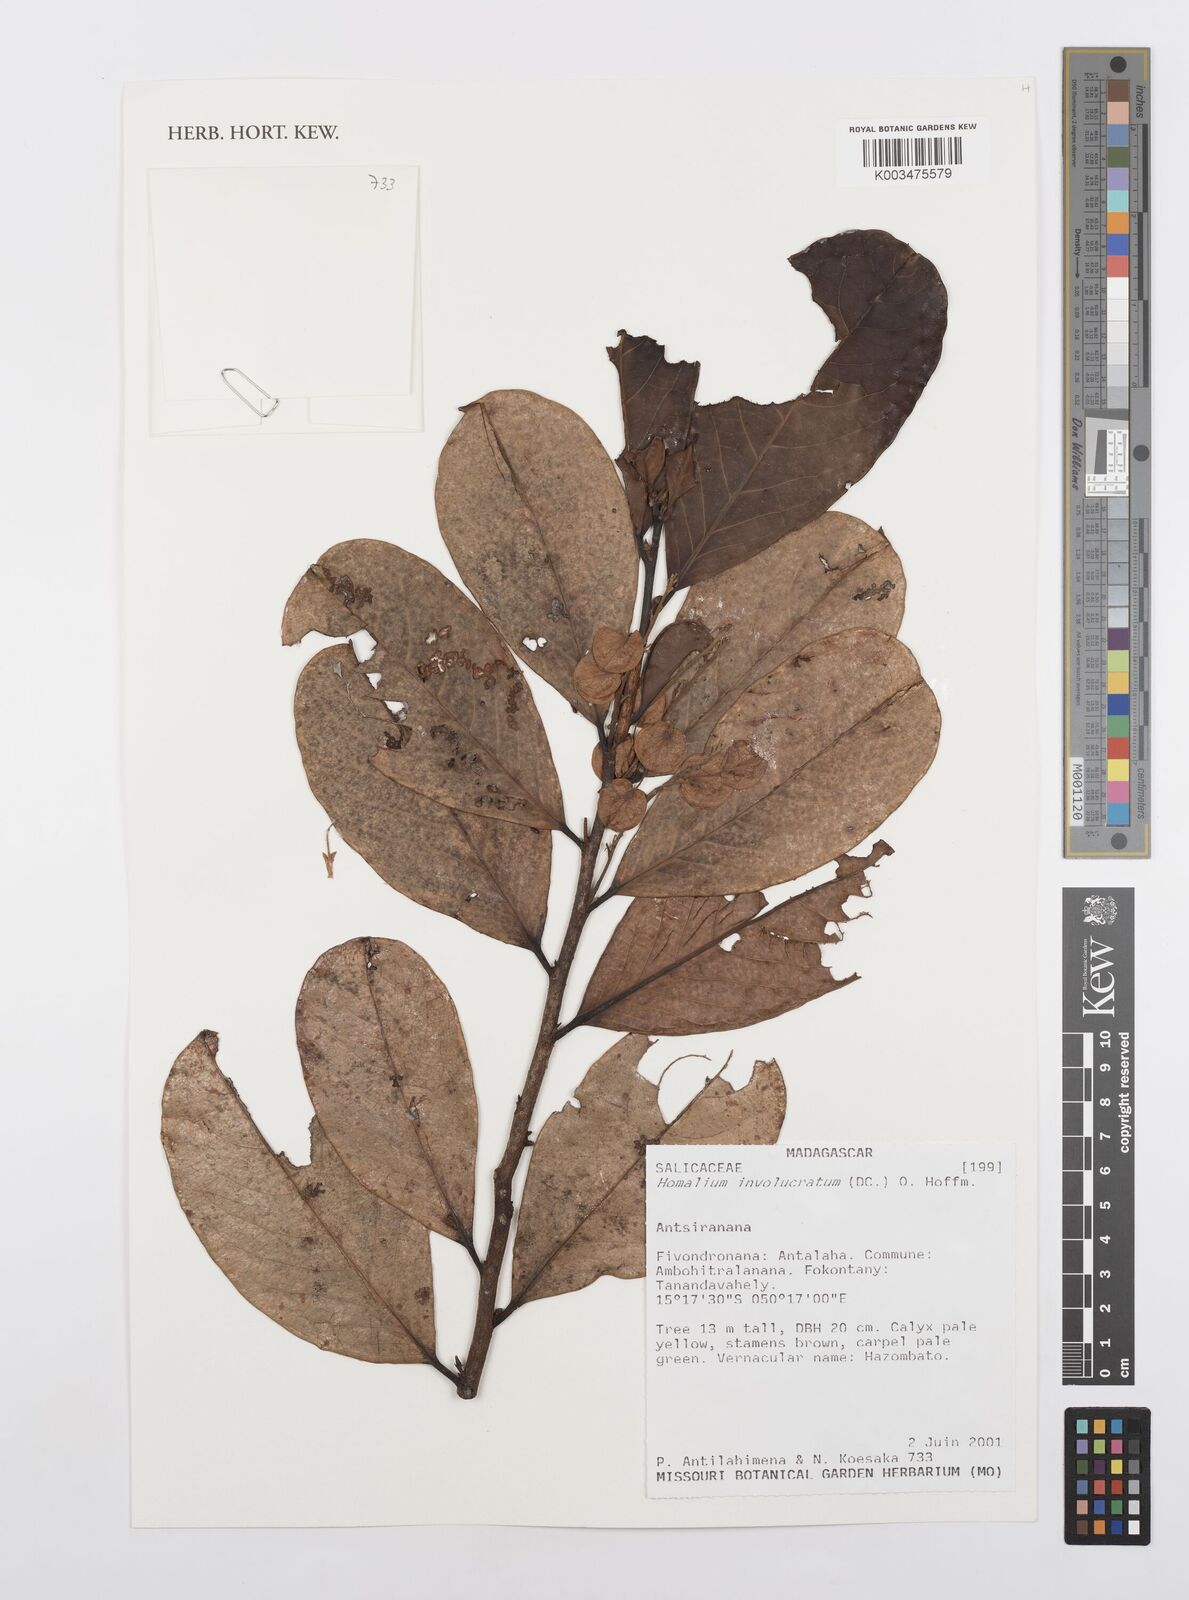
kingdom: Plantae
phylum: Tracheophyta
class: Magnoliopsida
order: Malpighiales
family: Salicaceae
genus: Homalium
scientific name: Homalium involucratum
